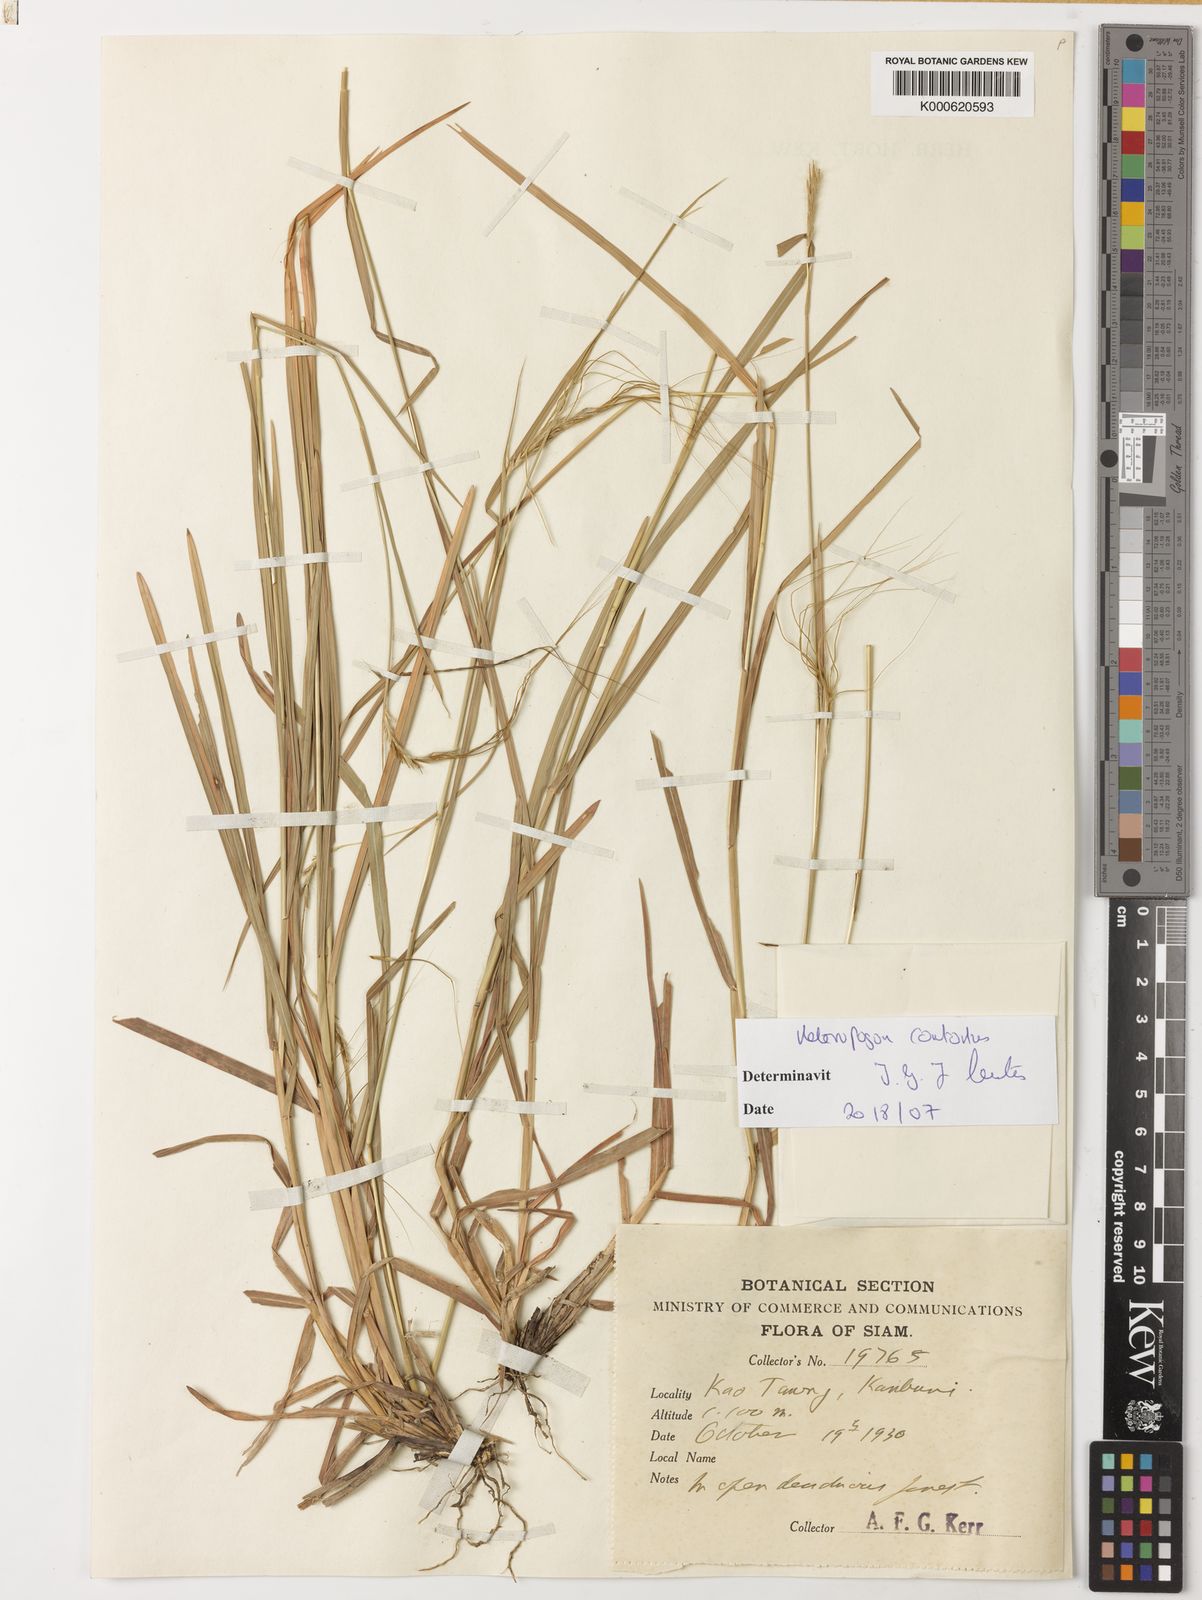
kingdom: Plantae
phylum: Tracheophyta
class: Liliopsida
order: Poales
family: Poaceae
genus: Heteropogon
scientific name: Heteropogon contortus
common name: Tanglehead
